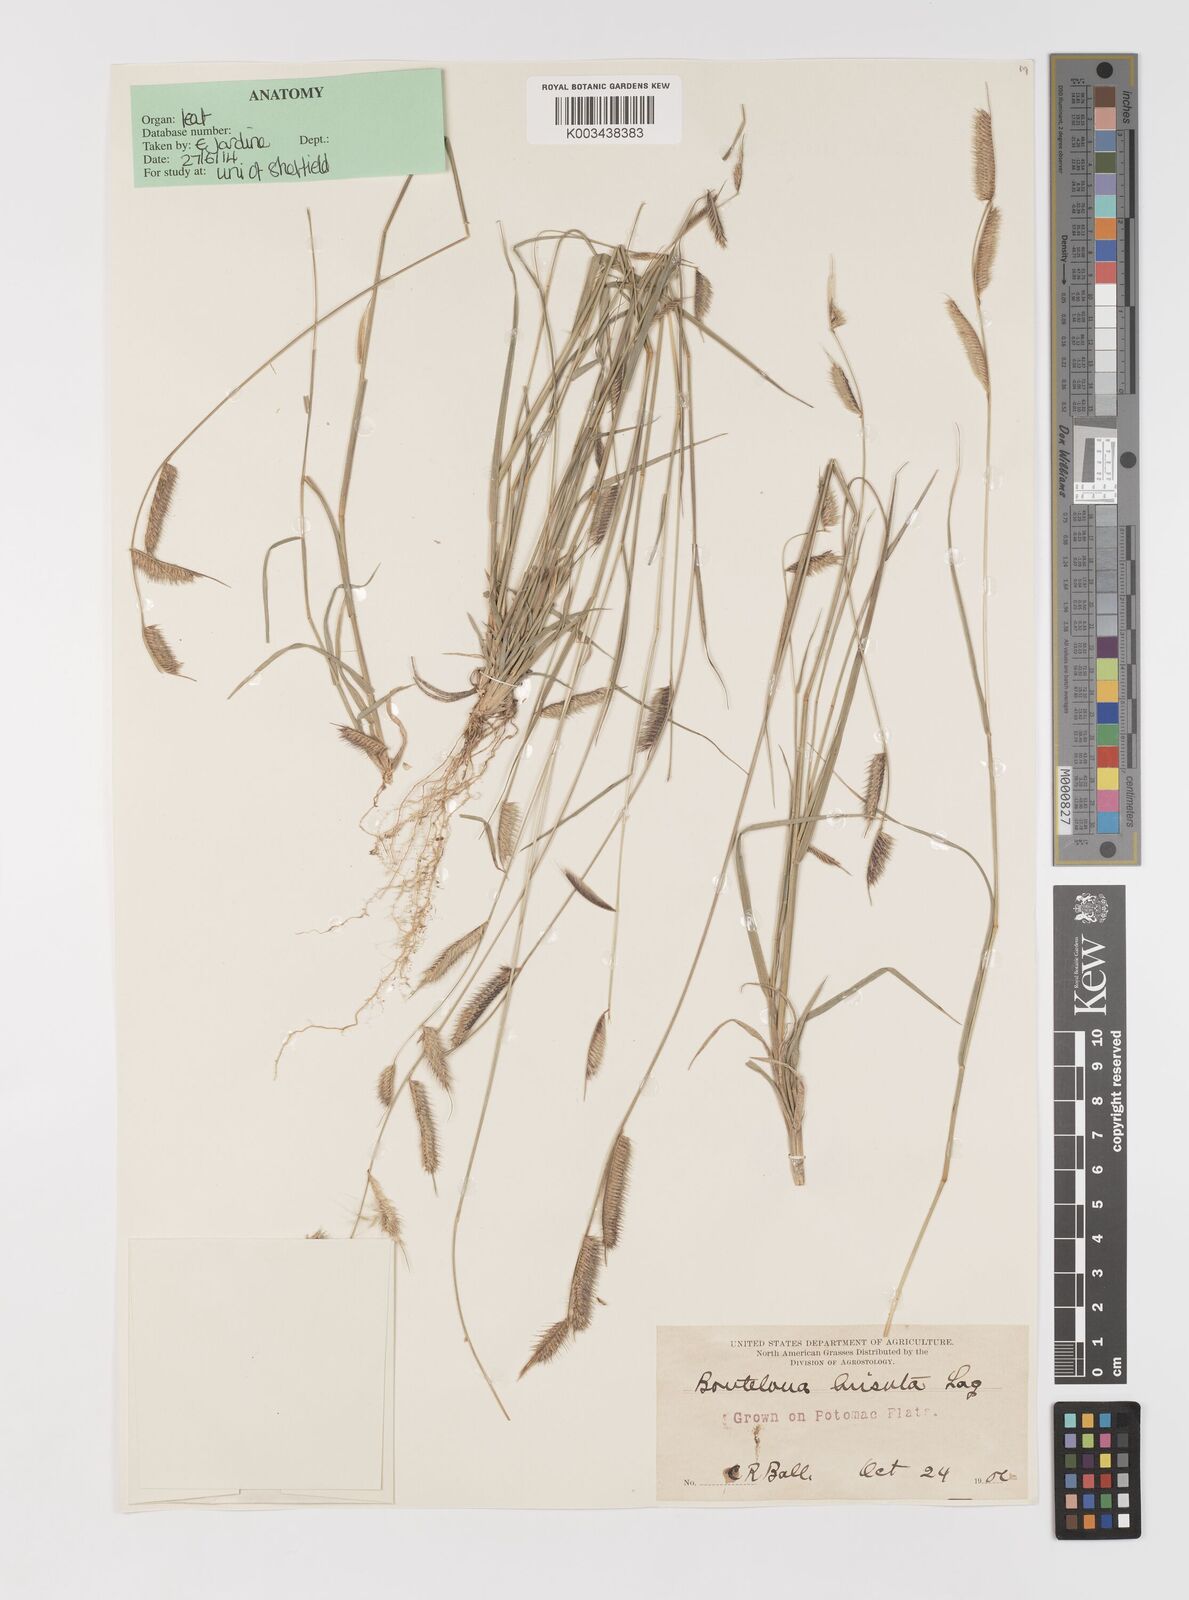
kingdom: Plantae
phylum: Tracheophyta
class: Liliopsida
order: Poales
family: Poaceae
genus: Bouteloua
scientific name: Bouteloua hirsuta
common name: Hairy grama
